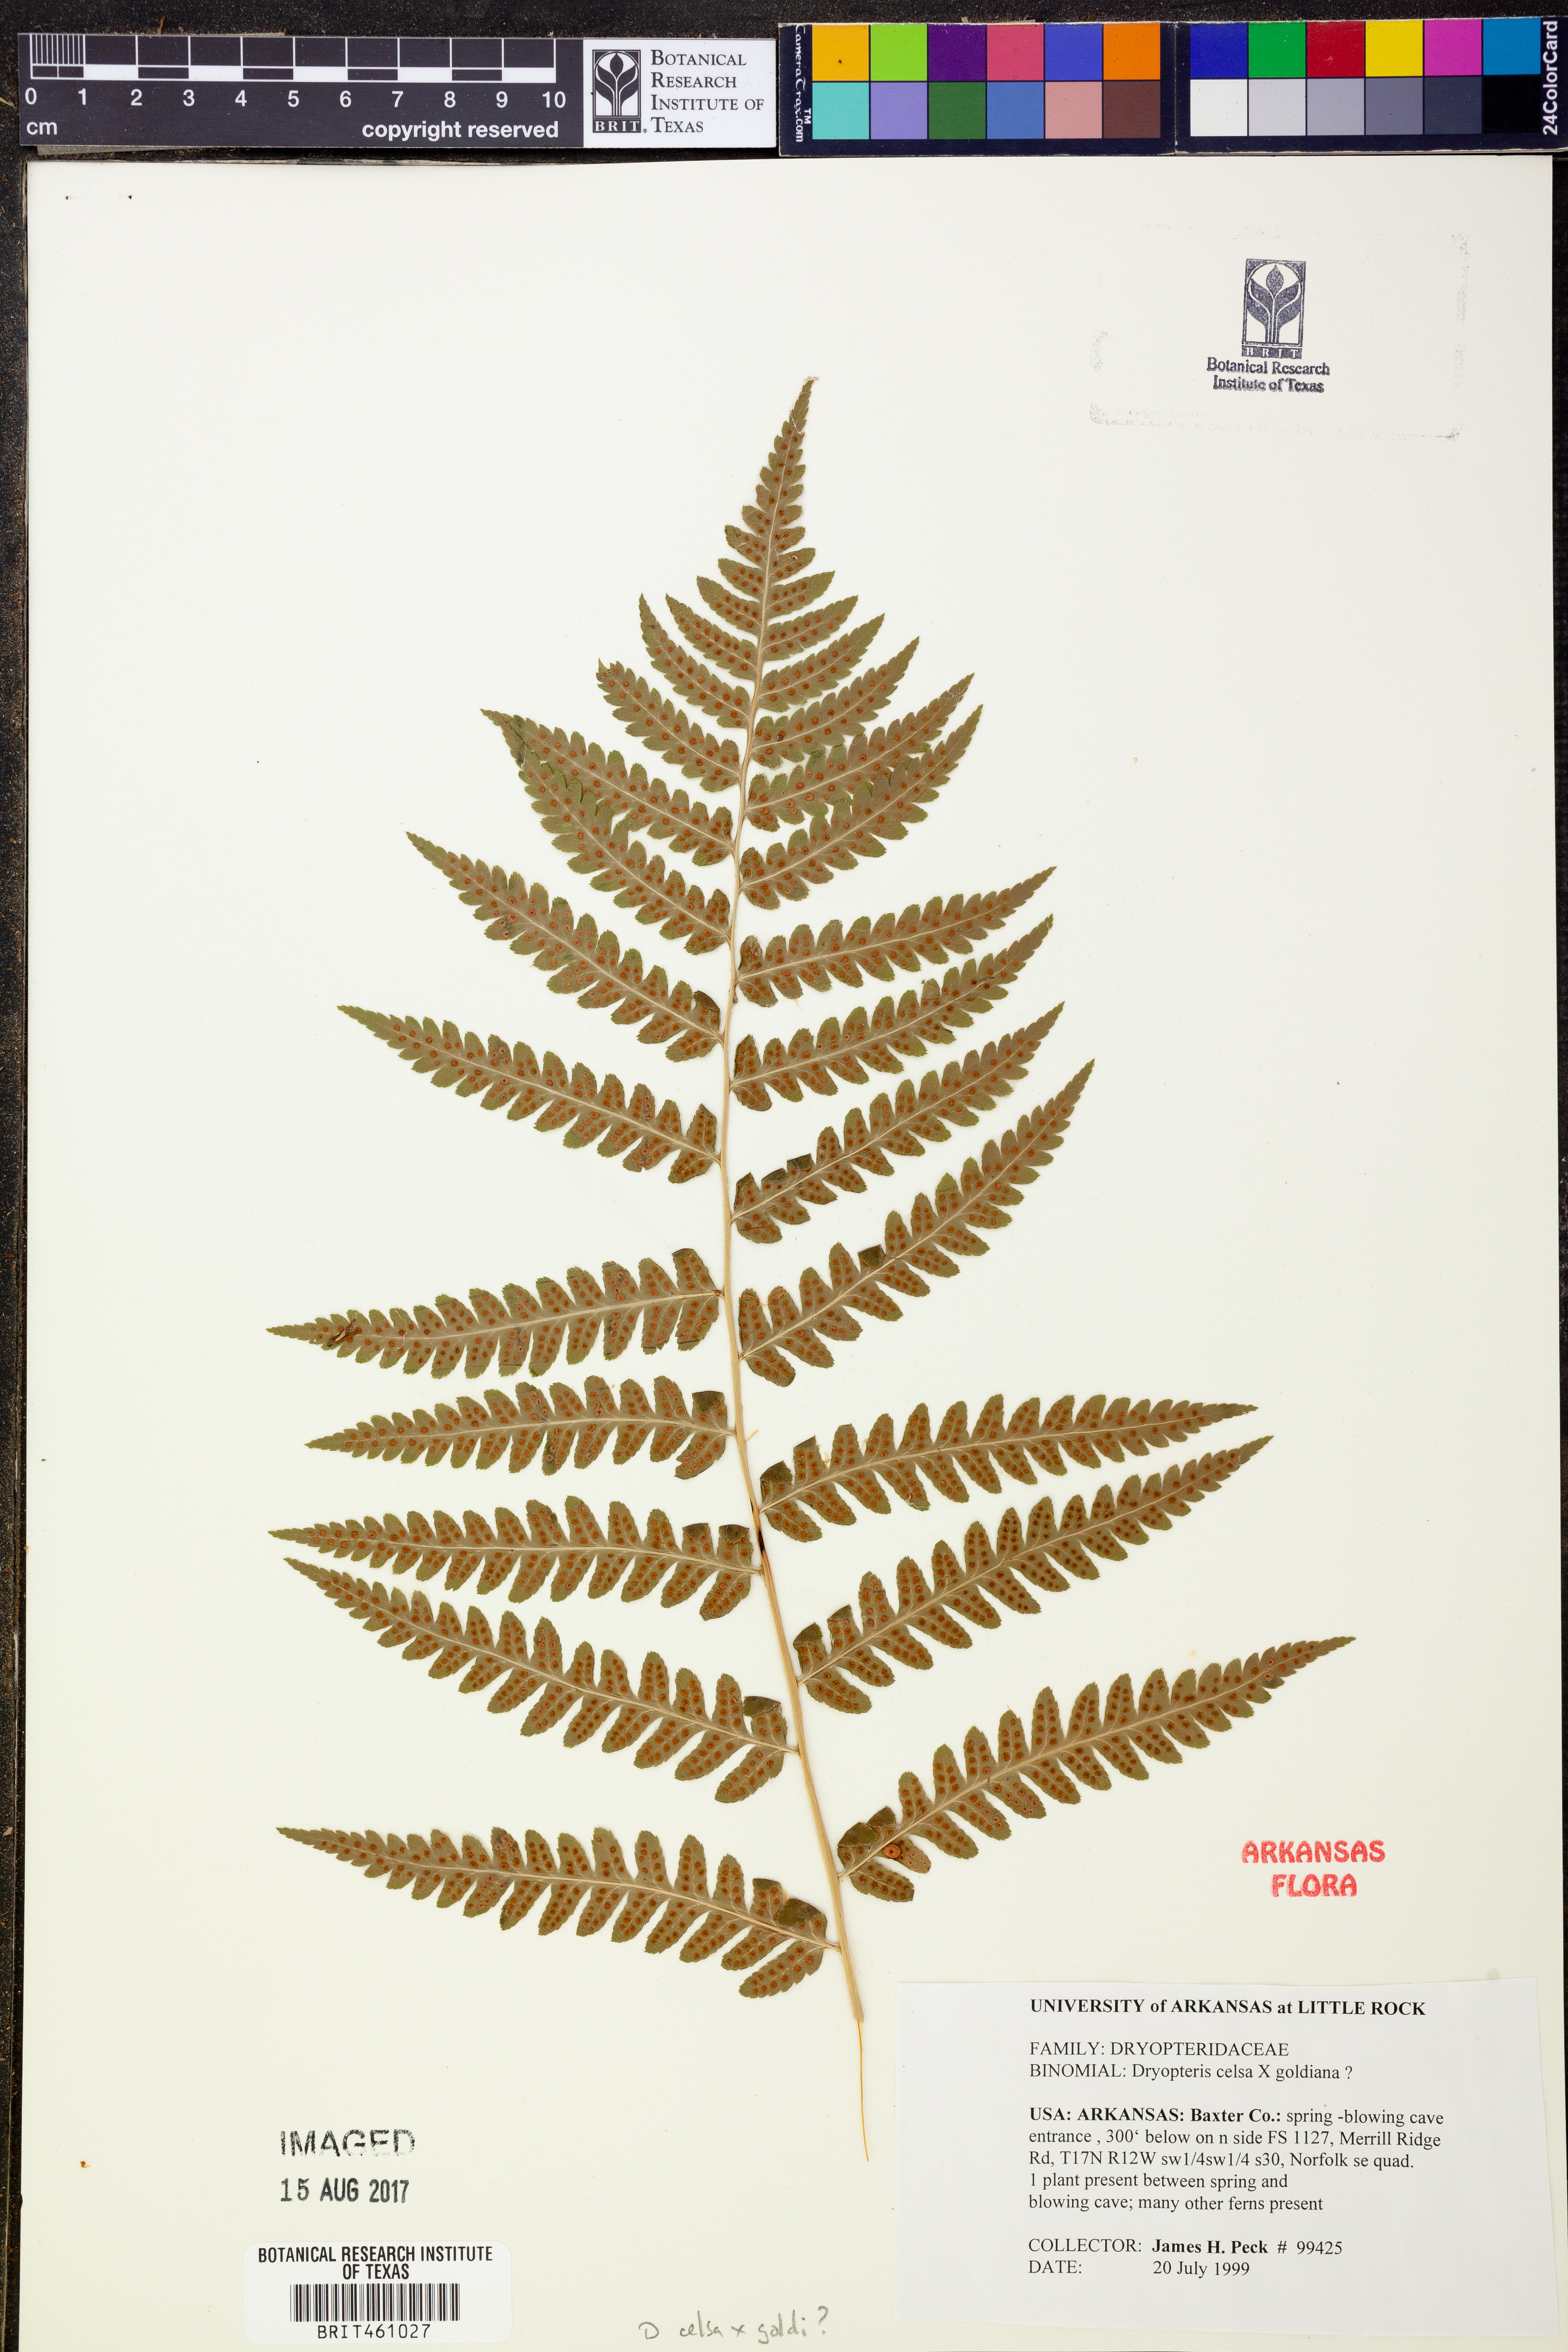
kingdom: Plantae
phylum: Tracheophyta
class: Polypodiopsida
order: Polypodiales
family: Dryopteridaceae
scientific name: Dryopteridaceae
